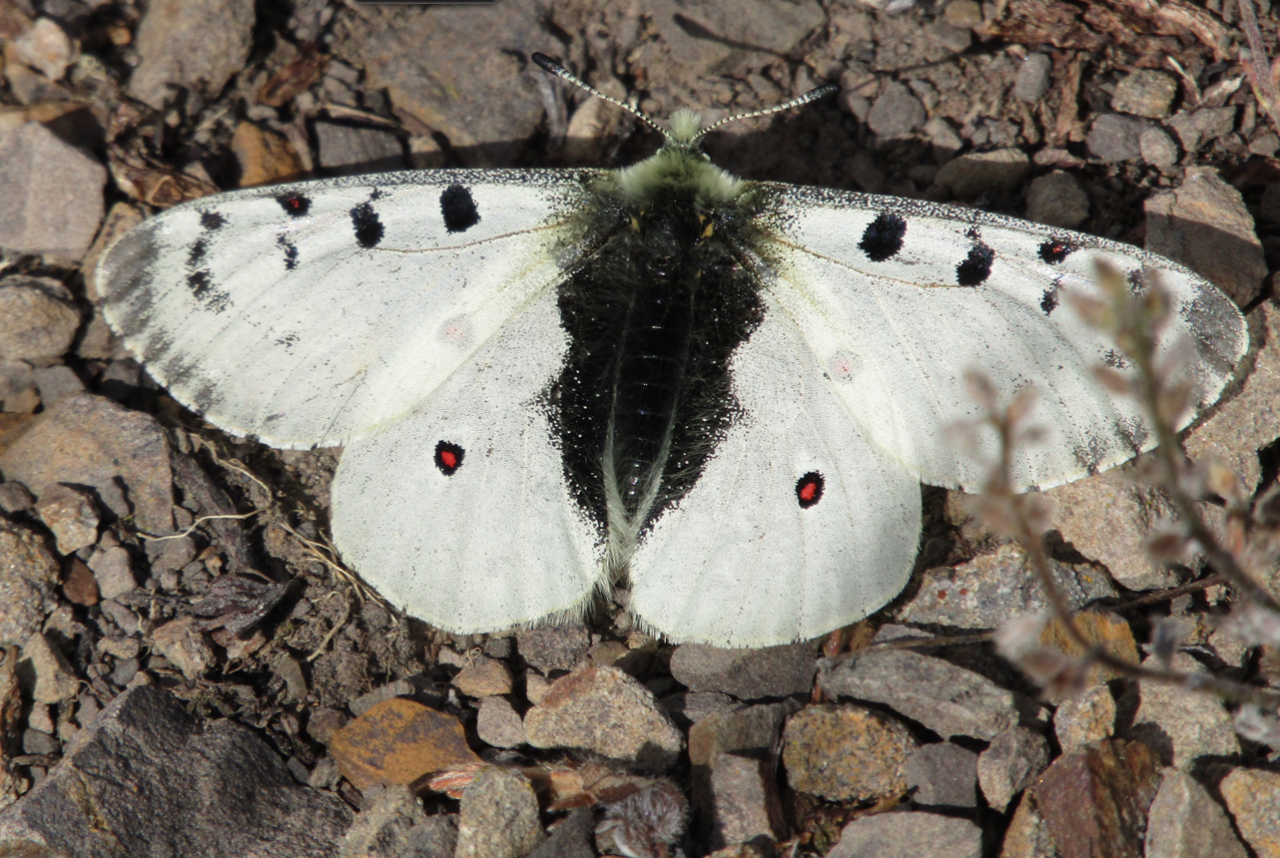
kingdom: Animalia
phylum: Arthropoda
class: Insecta
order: Lepidoptera
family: Papilionidae
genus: Parnassius
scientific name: Parnassius smintheus
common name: Rocky Mountain Parnassian
